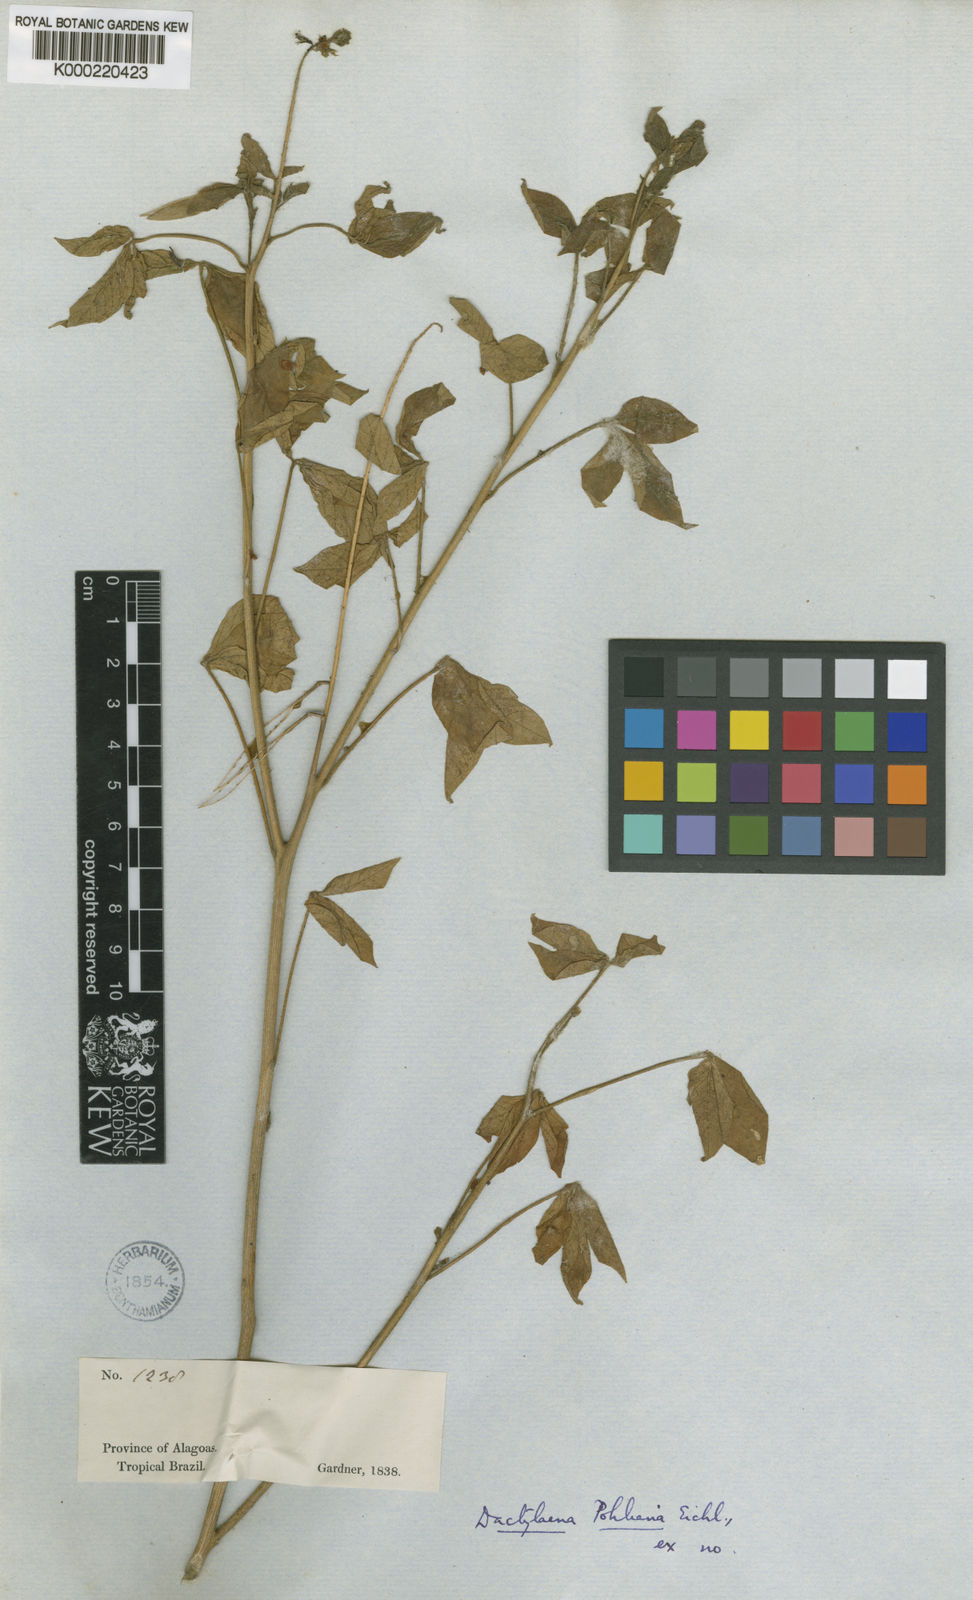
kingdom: Plantae
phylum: Tracheophyta
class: Magnoliopsida
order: Brassicales
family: Cleomaceae
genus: Dactylaena
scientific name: Dactylaena pohliana
